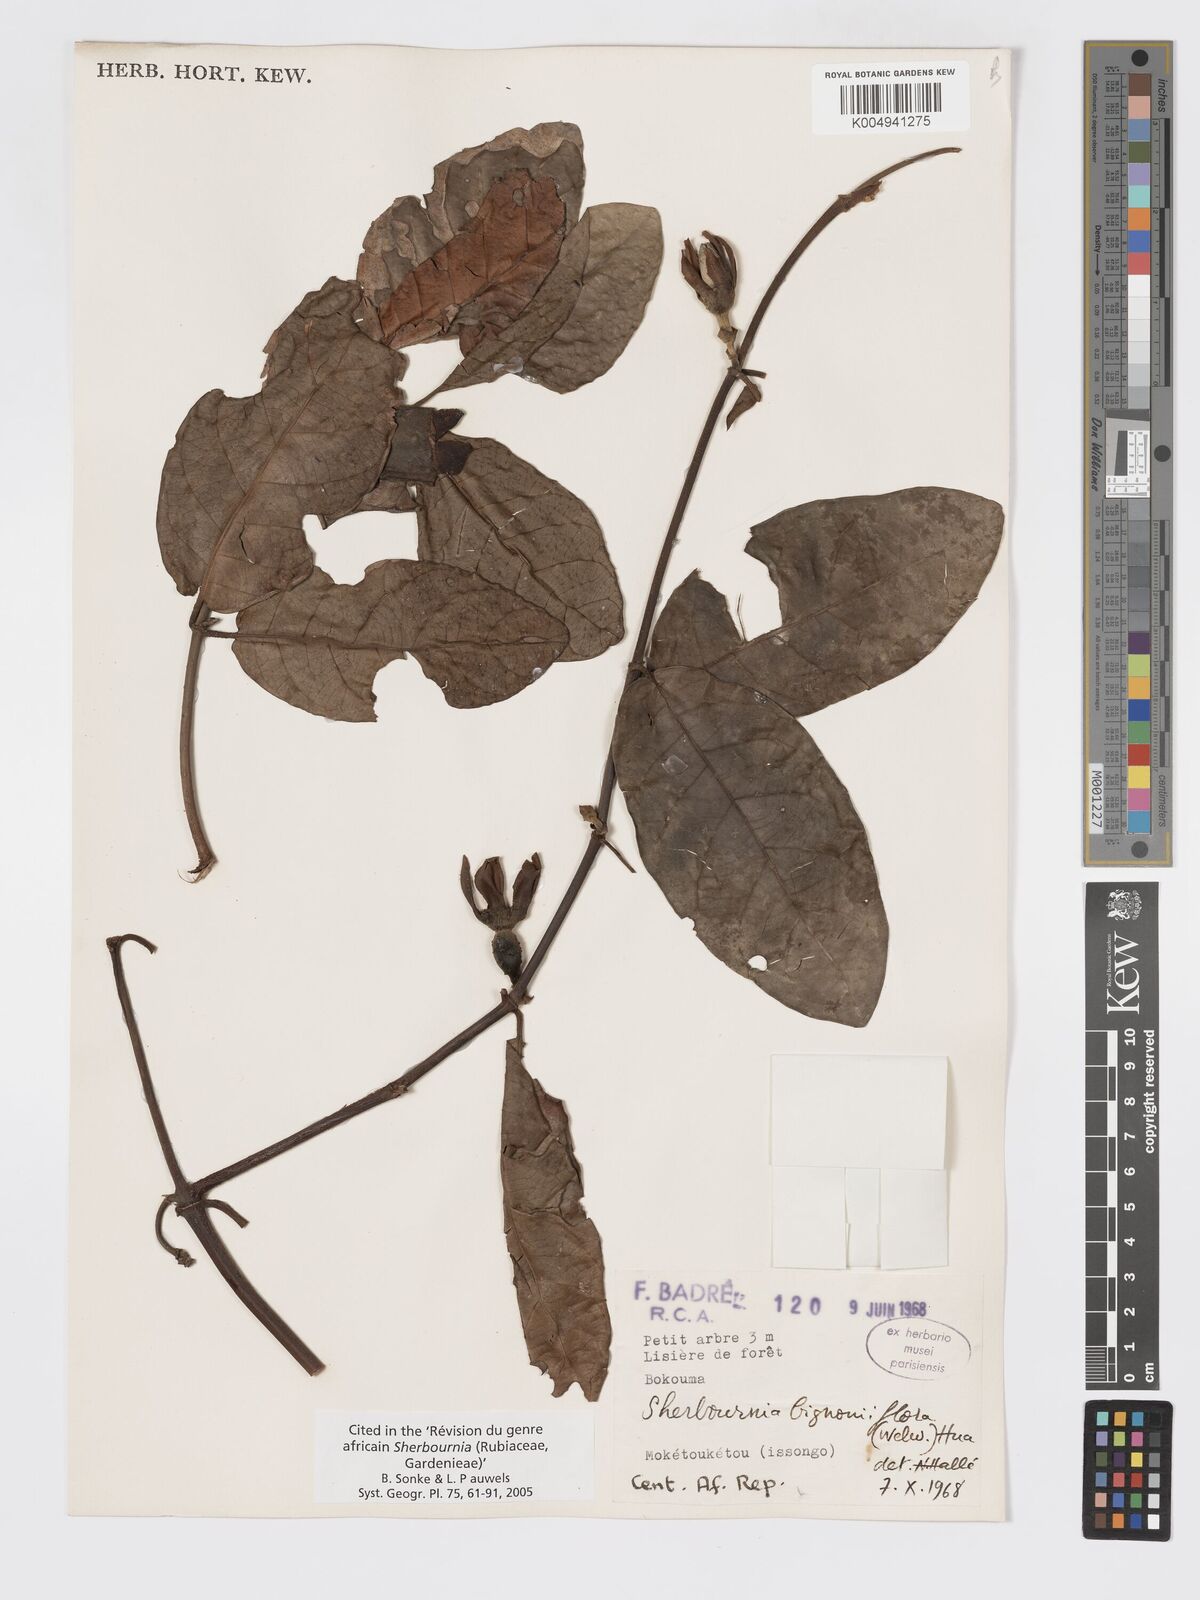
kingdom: Plantae
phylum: Tracheophyta
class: Magnoliopsida
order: Gentianales
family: Rubiaceae
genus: Sherbournia
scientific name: Sherbournia bignoniiflora
